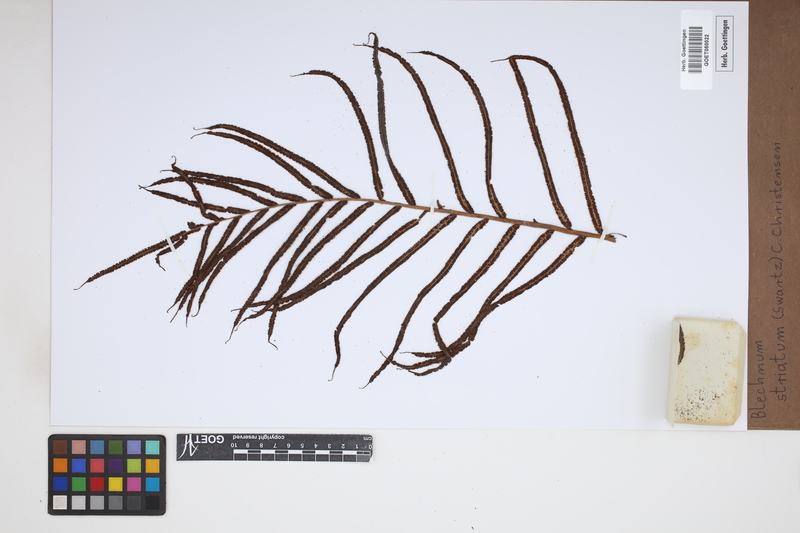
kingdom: Plantae
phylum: Tracheophyta
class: Polypodiopsida
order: Polypodiales
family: Blechnaceae
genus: Telmatoblechnum
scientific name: Telmatoblechnum indicum
